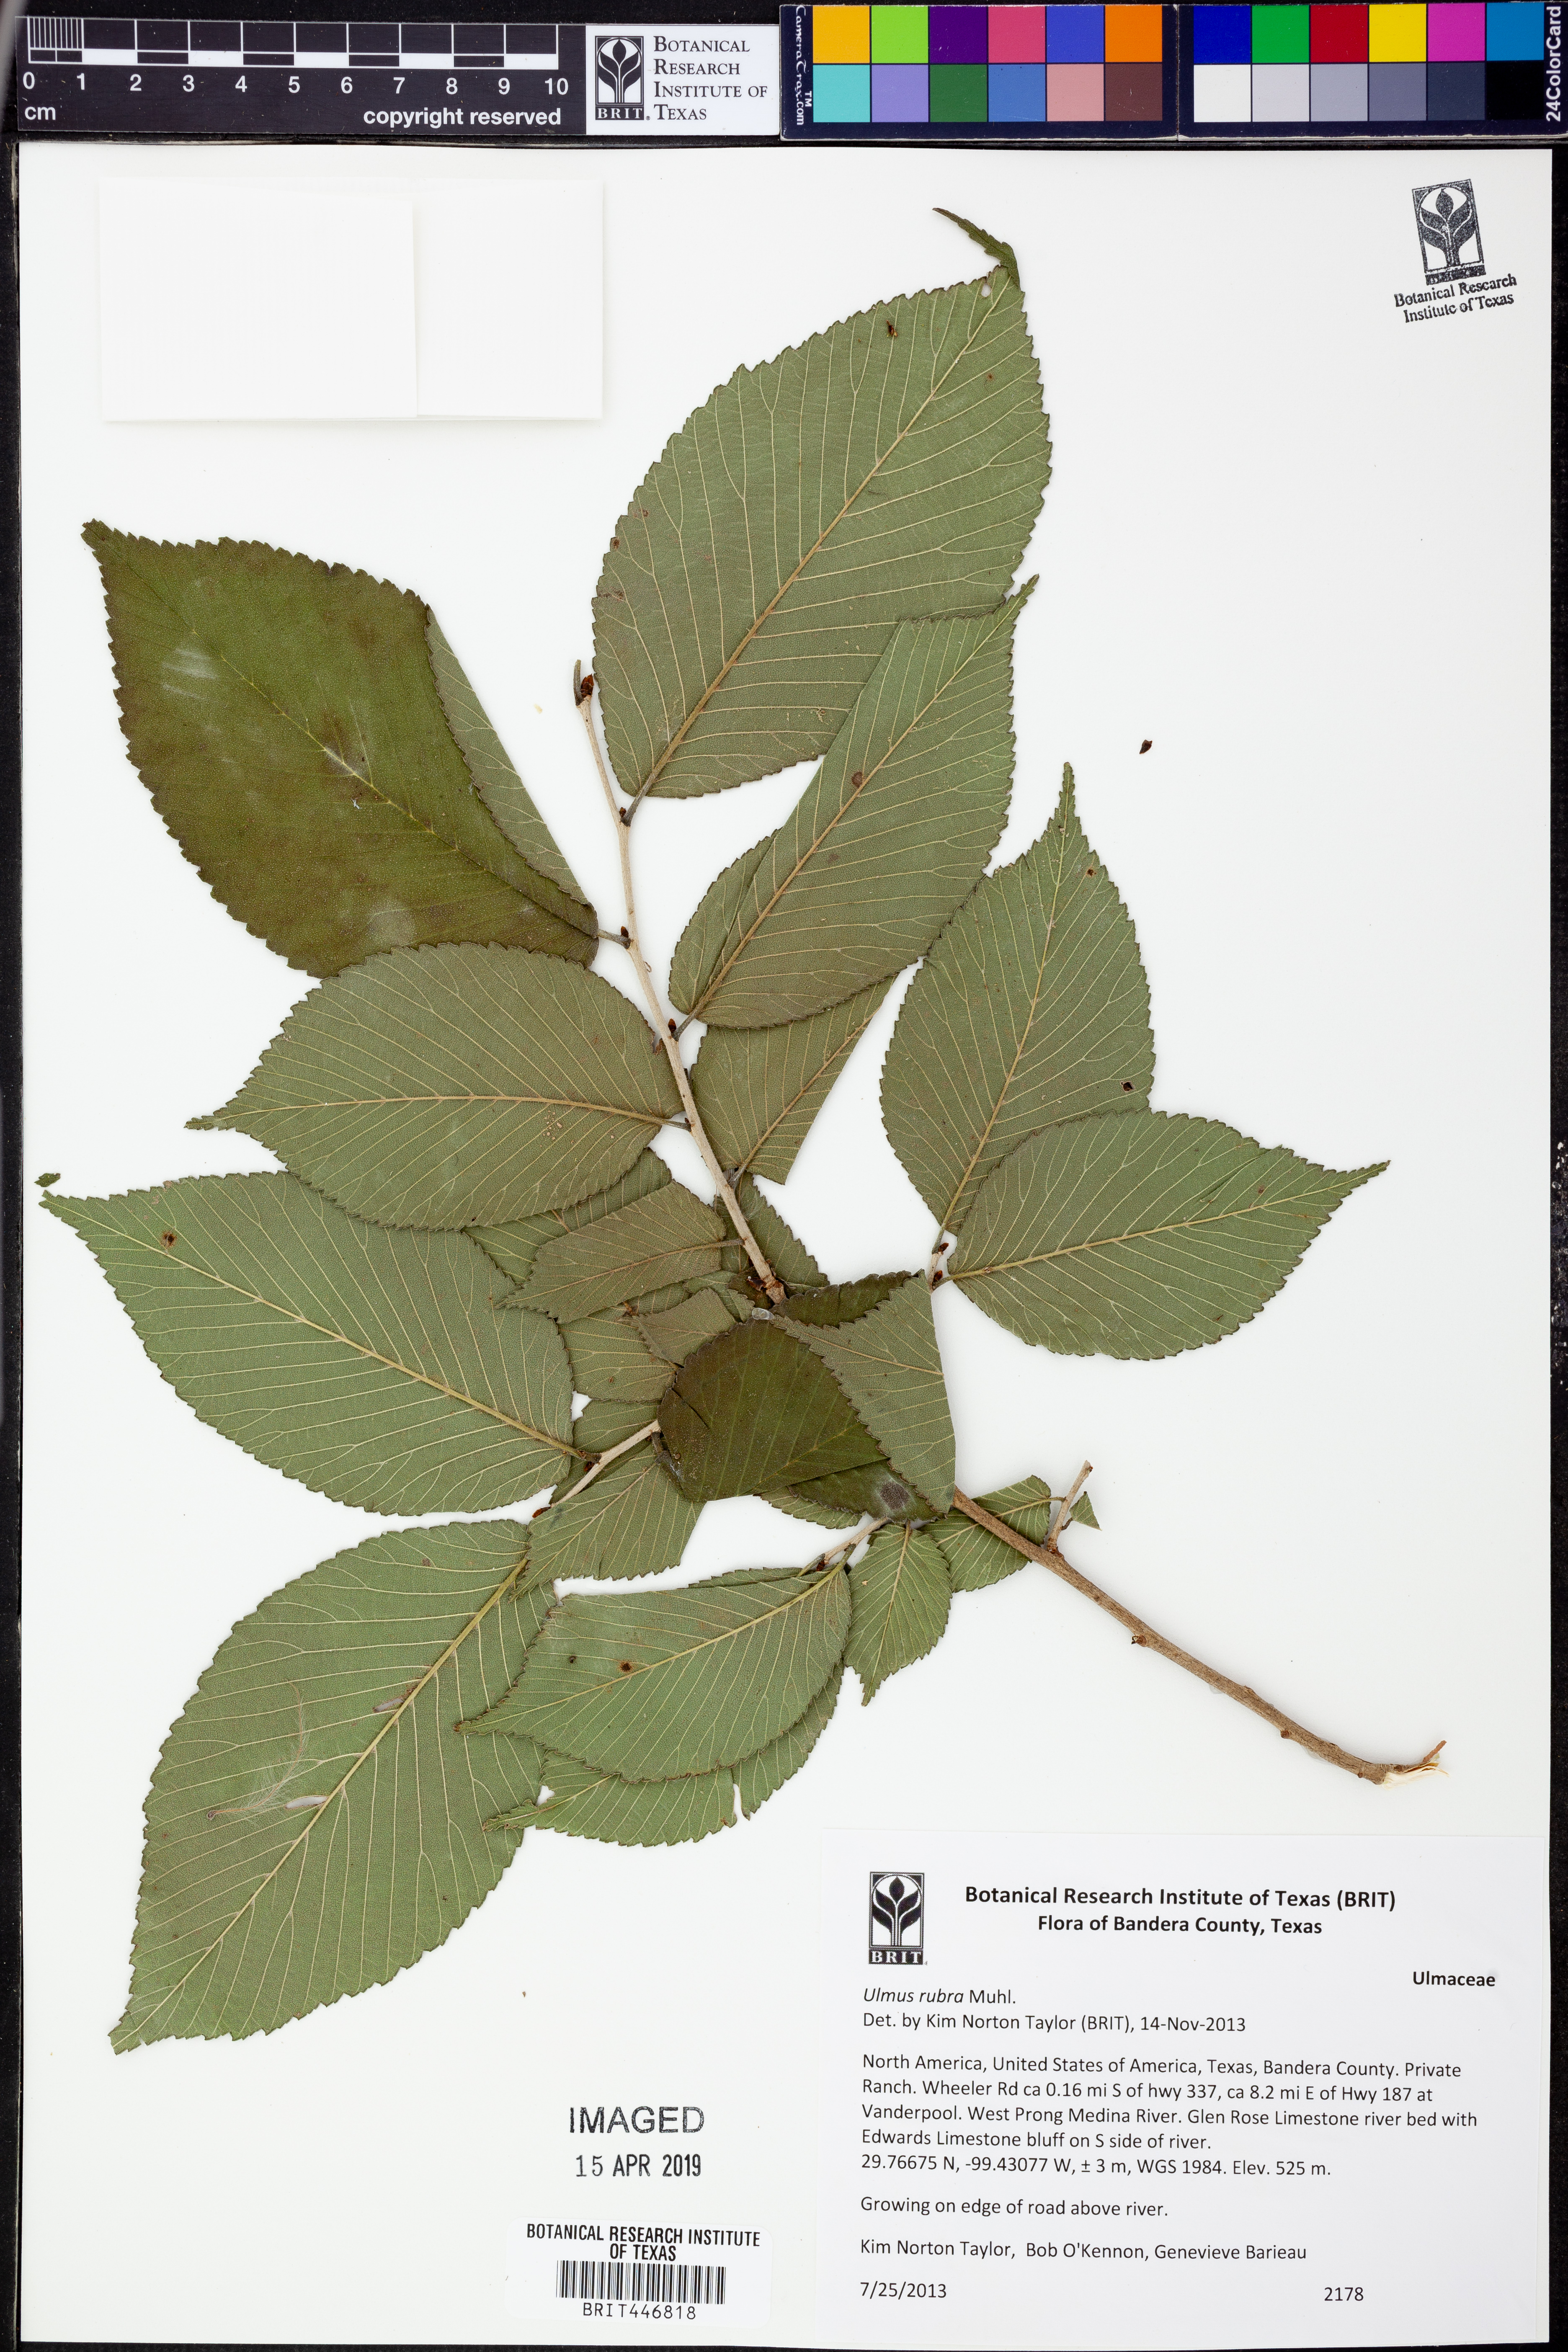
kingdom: Plantae
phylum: Tracheophyta
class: Magnoliopsida
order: Rosales
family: Ulmaceae
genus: Ulmus
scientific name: Ulmus rubra
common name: Slippery elm
